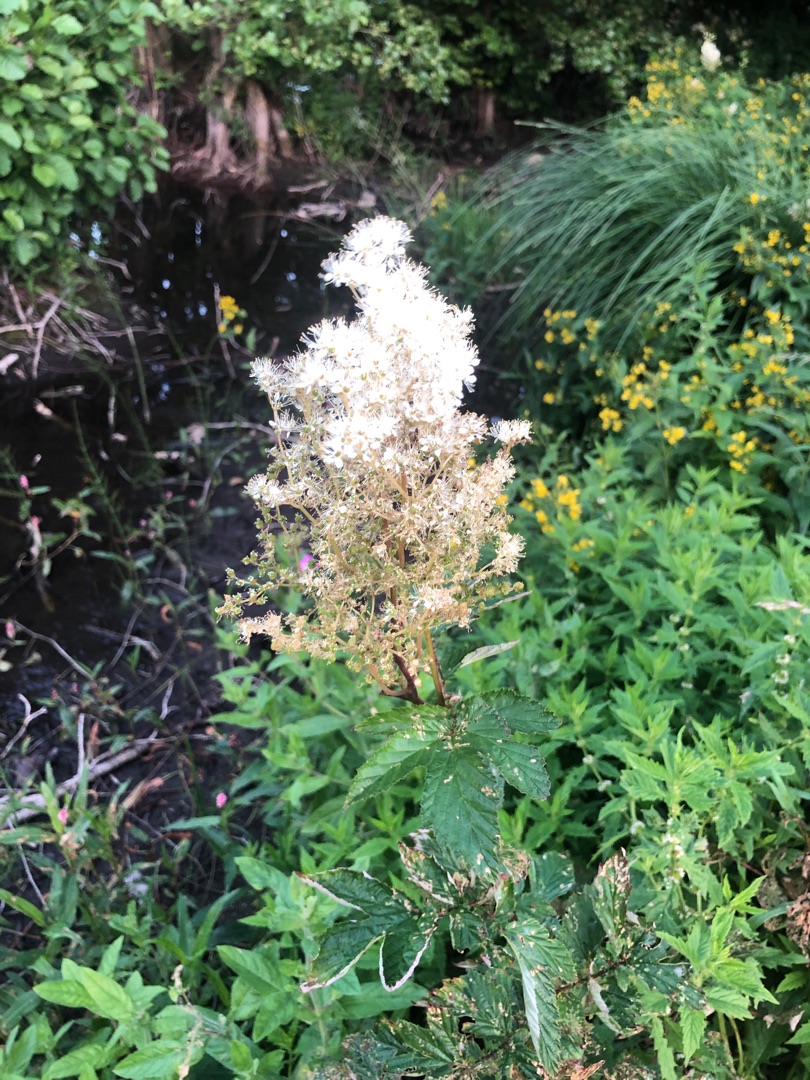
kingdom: Plantae
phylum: Tracheophyta
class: Magnoliopsida
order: Rosales
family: Rosaceae
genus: Filipendula
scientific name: Filipendula ulmaria
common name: Almindelig mjødurt
